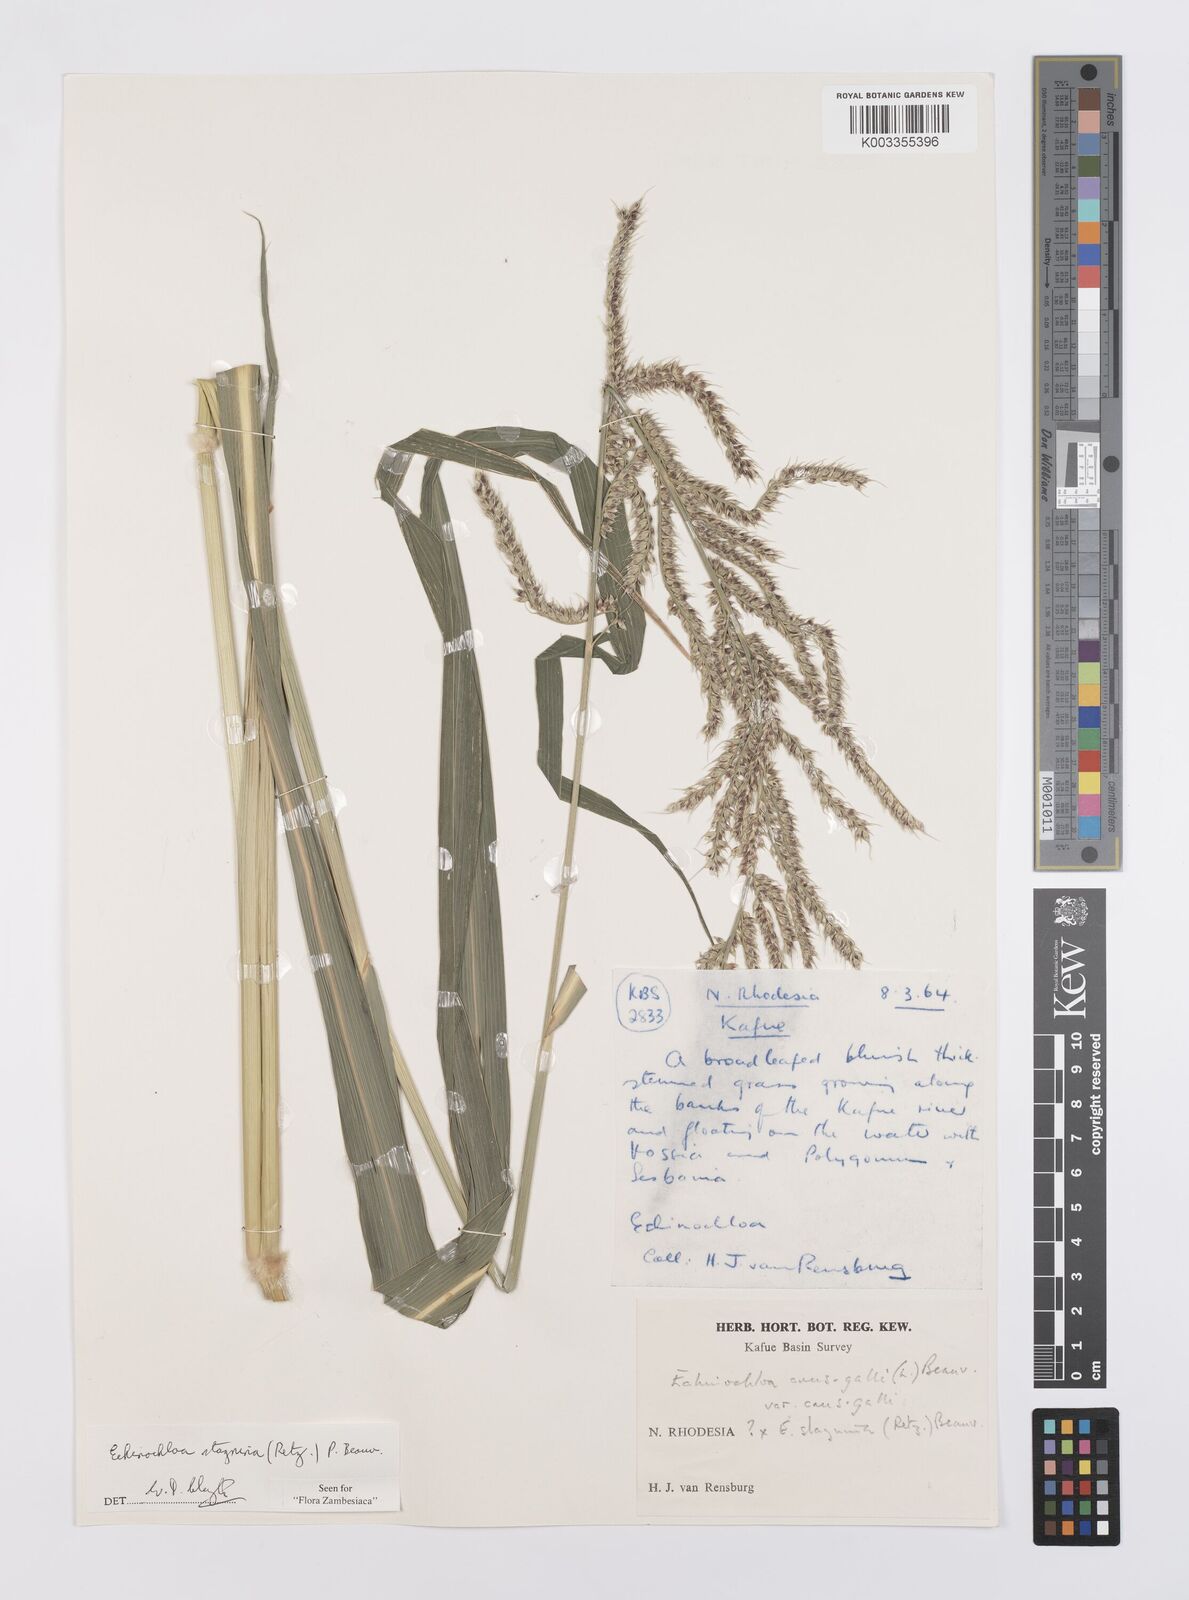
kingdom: Plantae
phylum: Tracheophyta
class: Liliopsida
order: Poales
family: Poaceae
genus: Echinochloa
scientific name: Echinochloa stagnina
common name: Burgu grass
